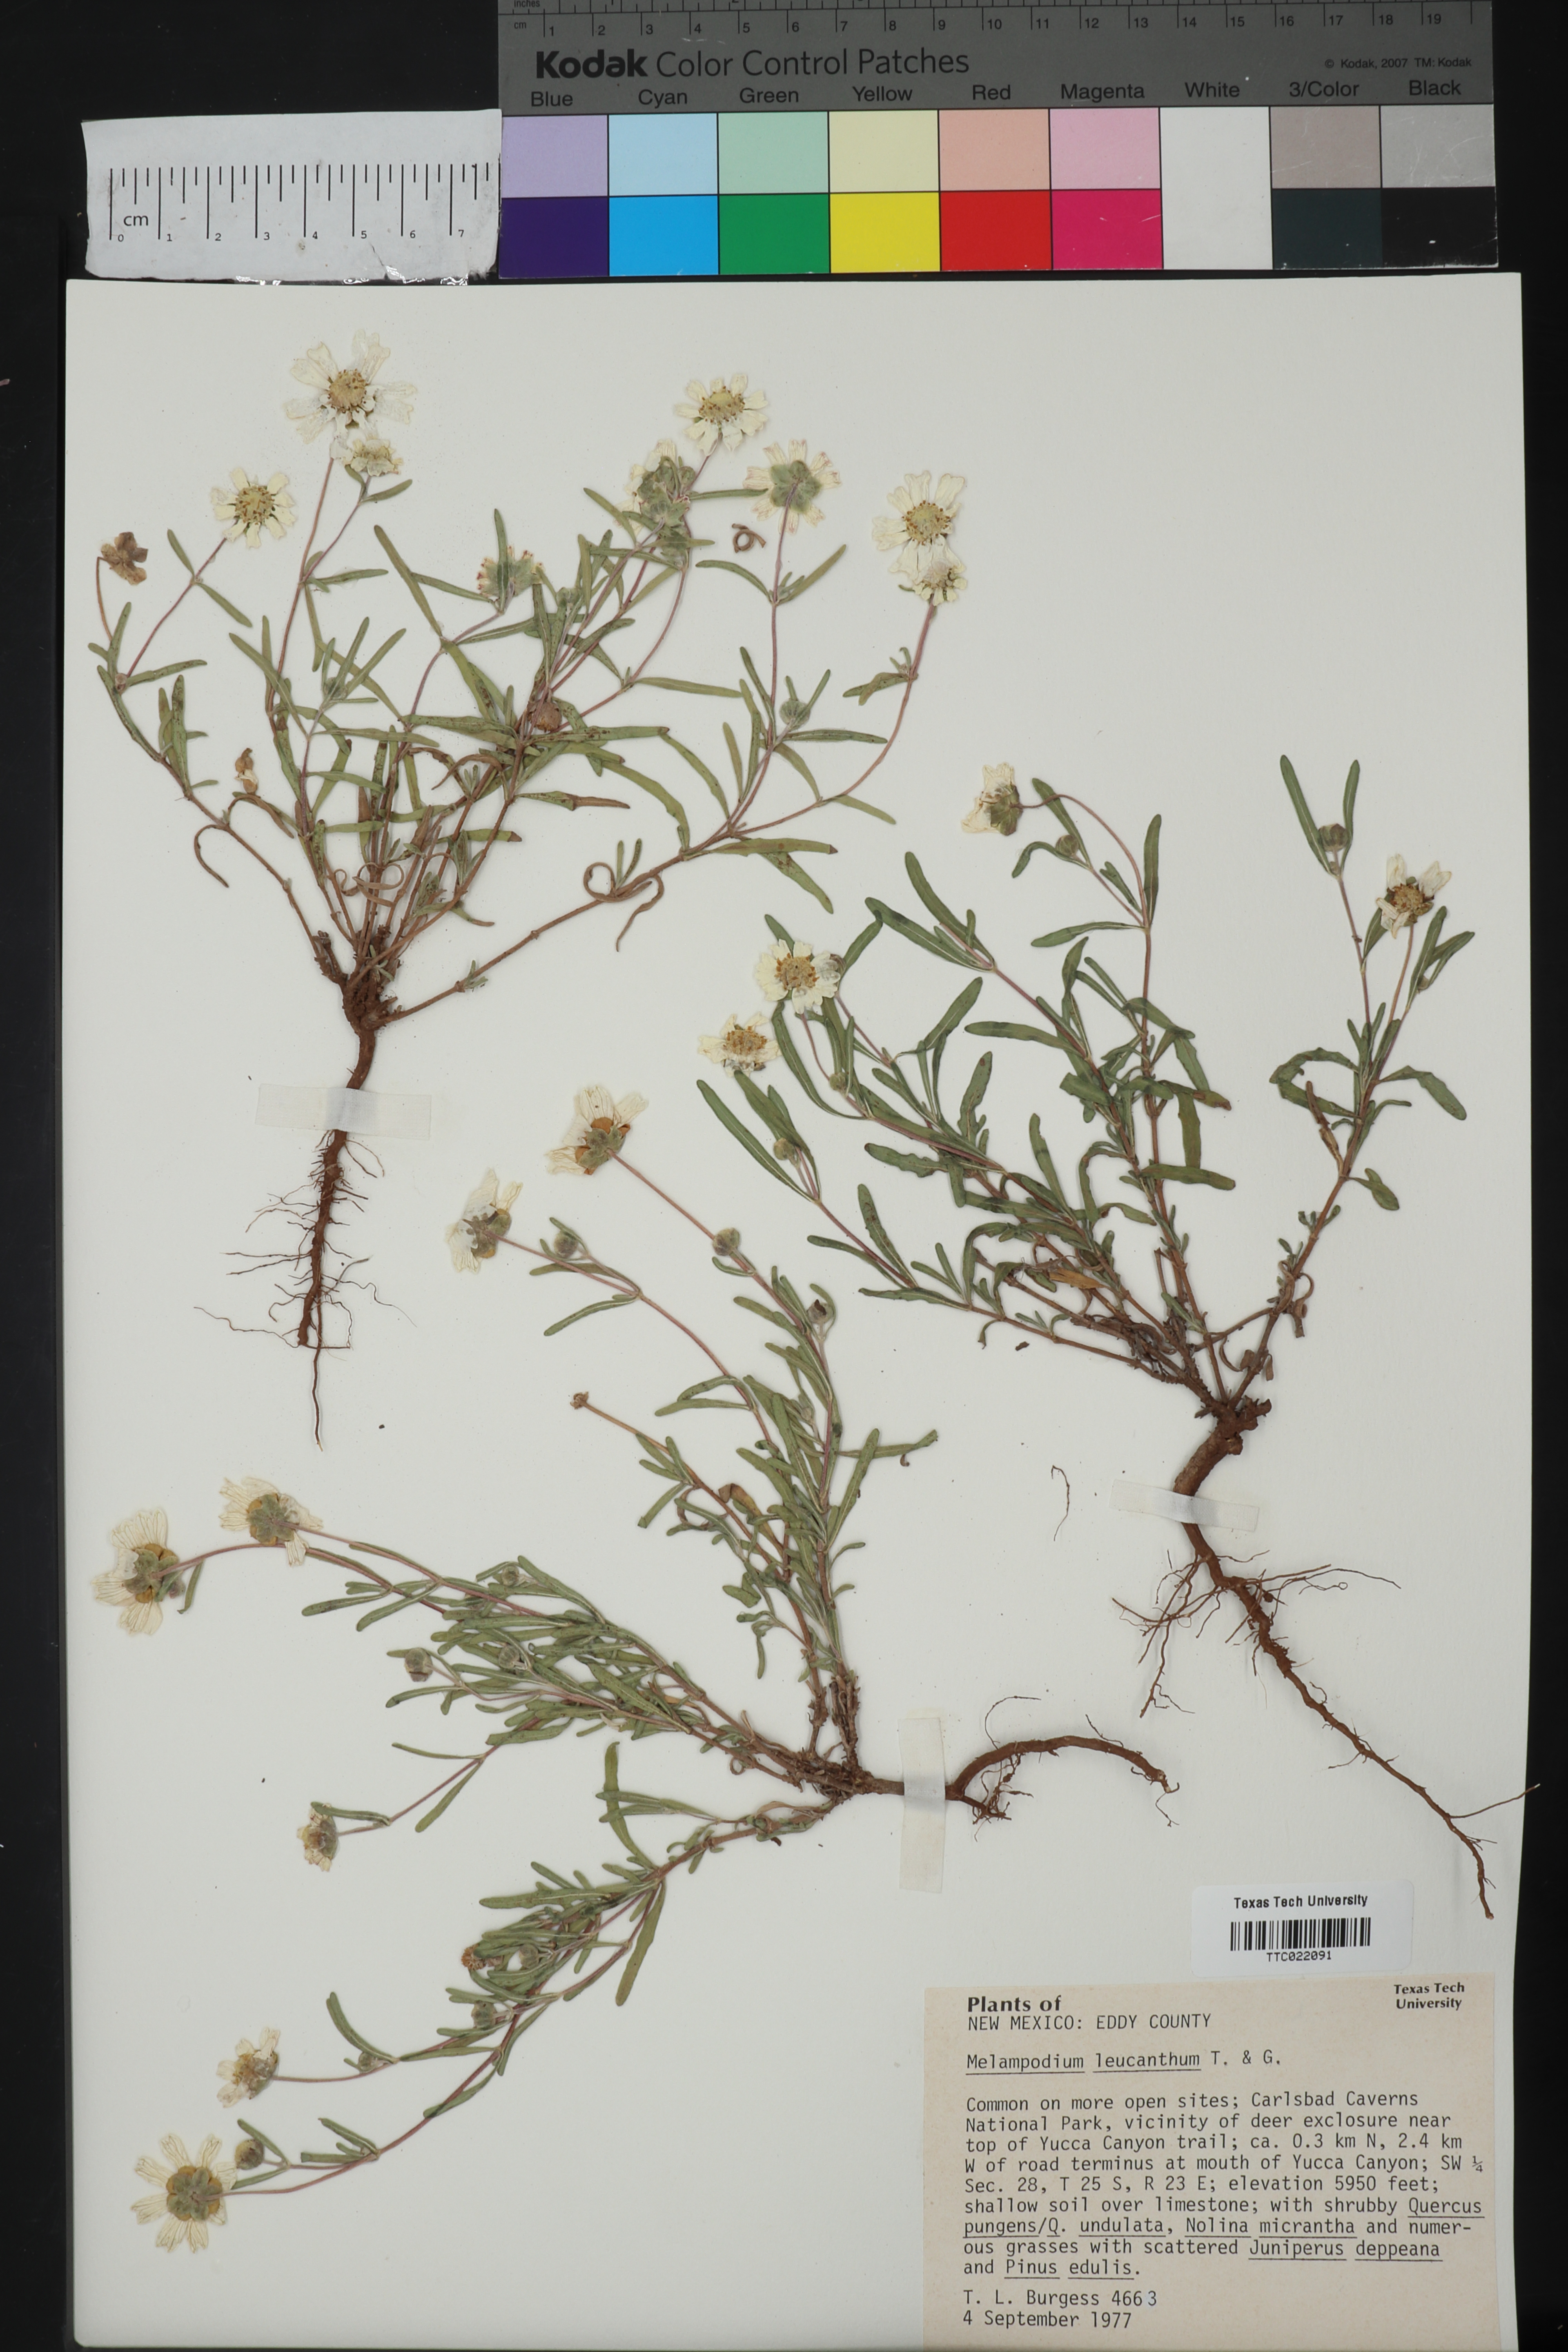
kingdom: Plantae
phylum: Tracheophyta
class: Magnoliopsida
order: Asterales
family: Asteraceae
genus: Melampodium
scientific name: Melampodium leucanthum
